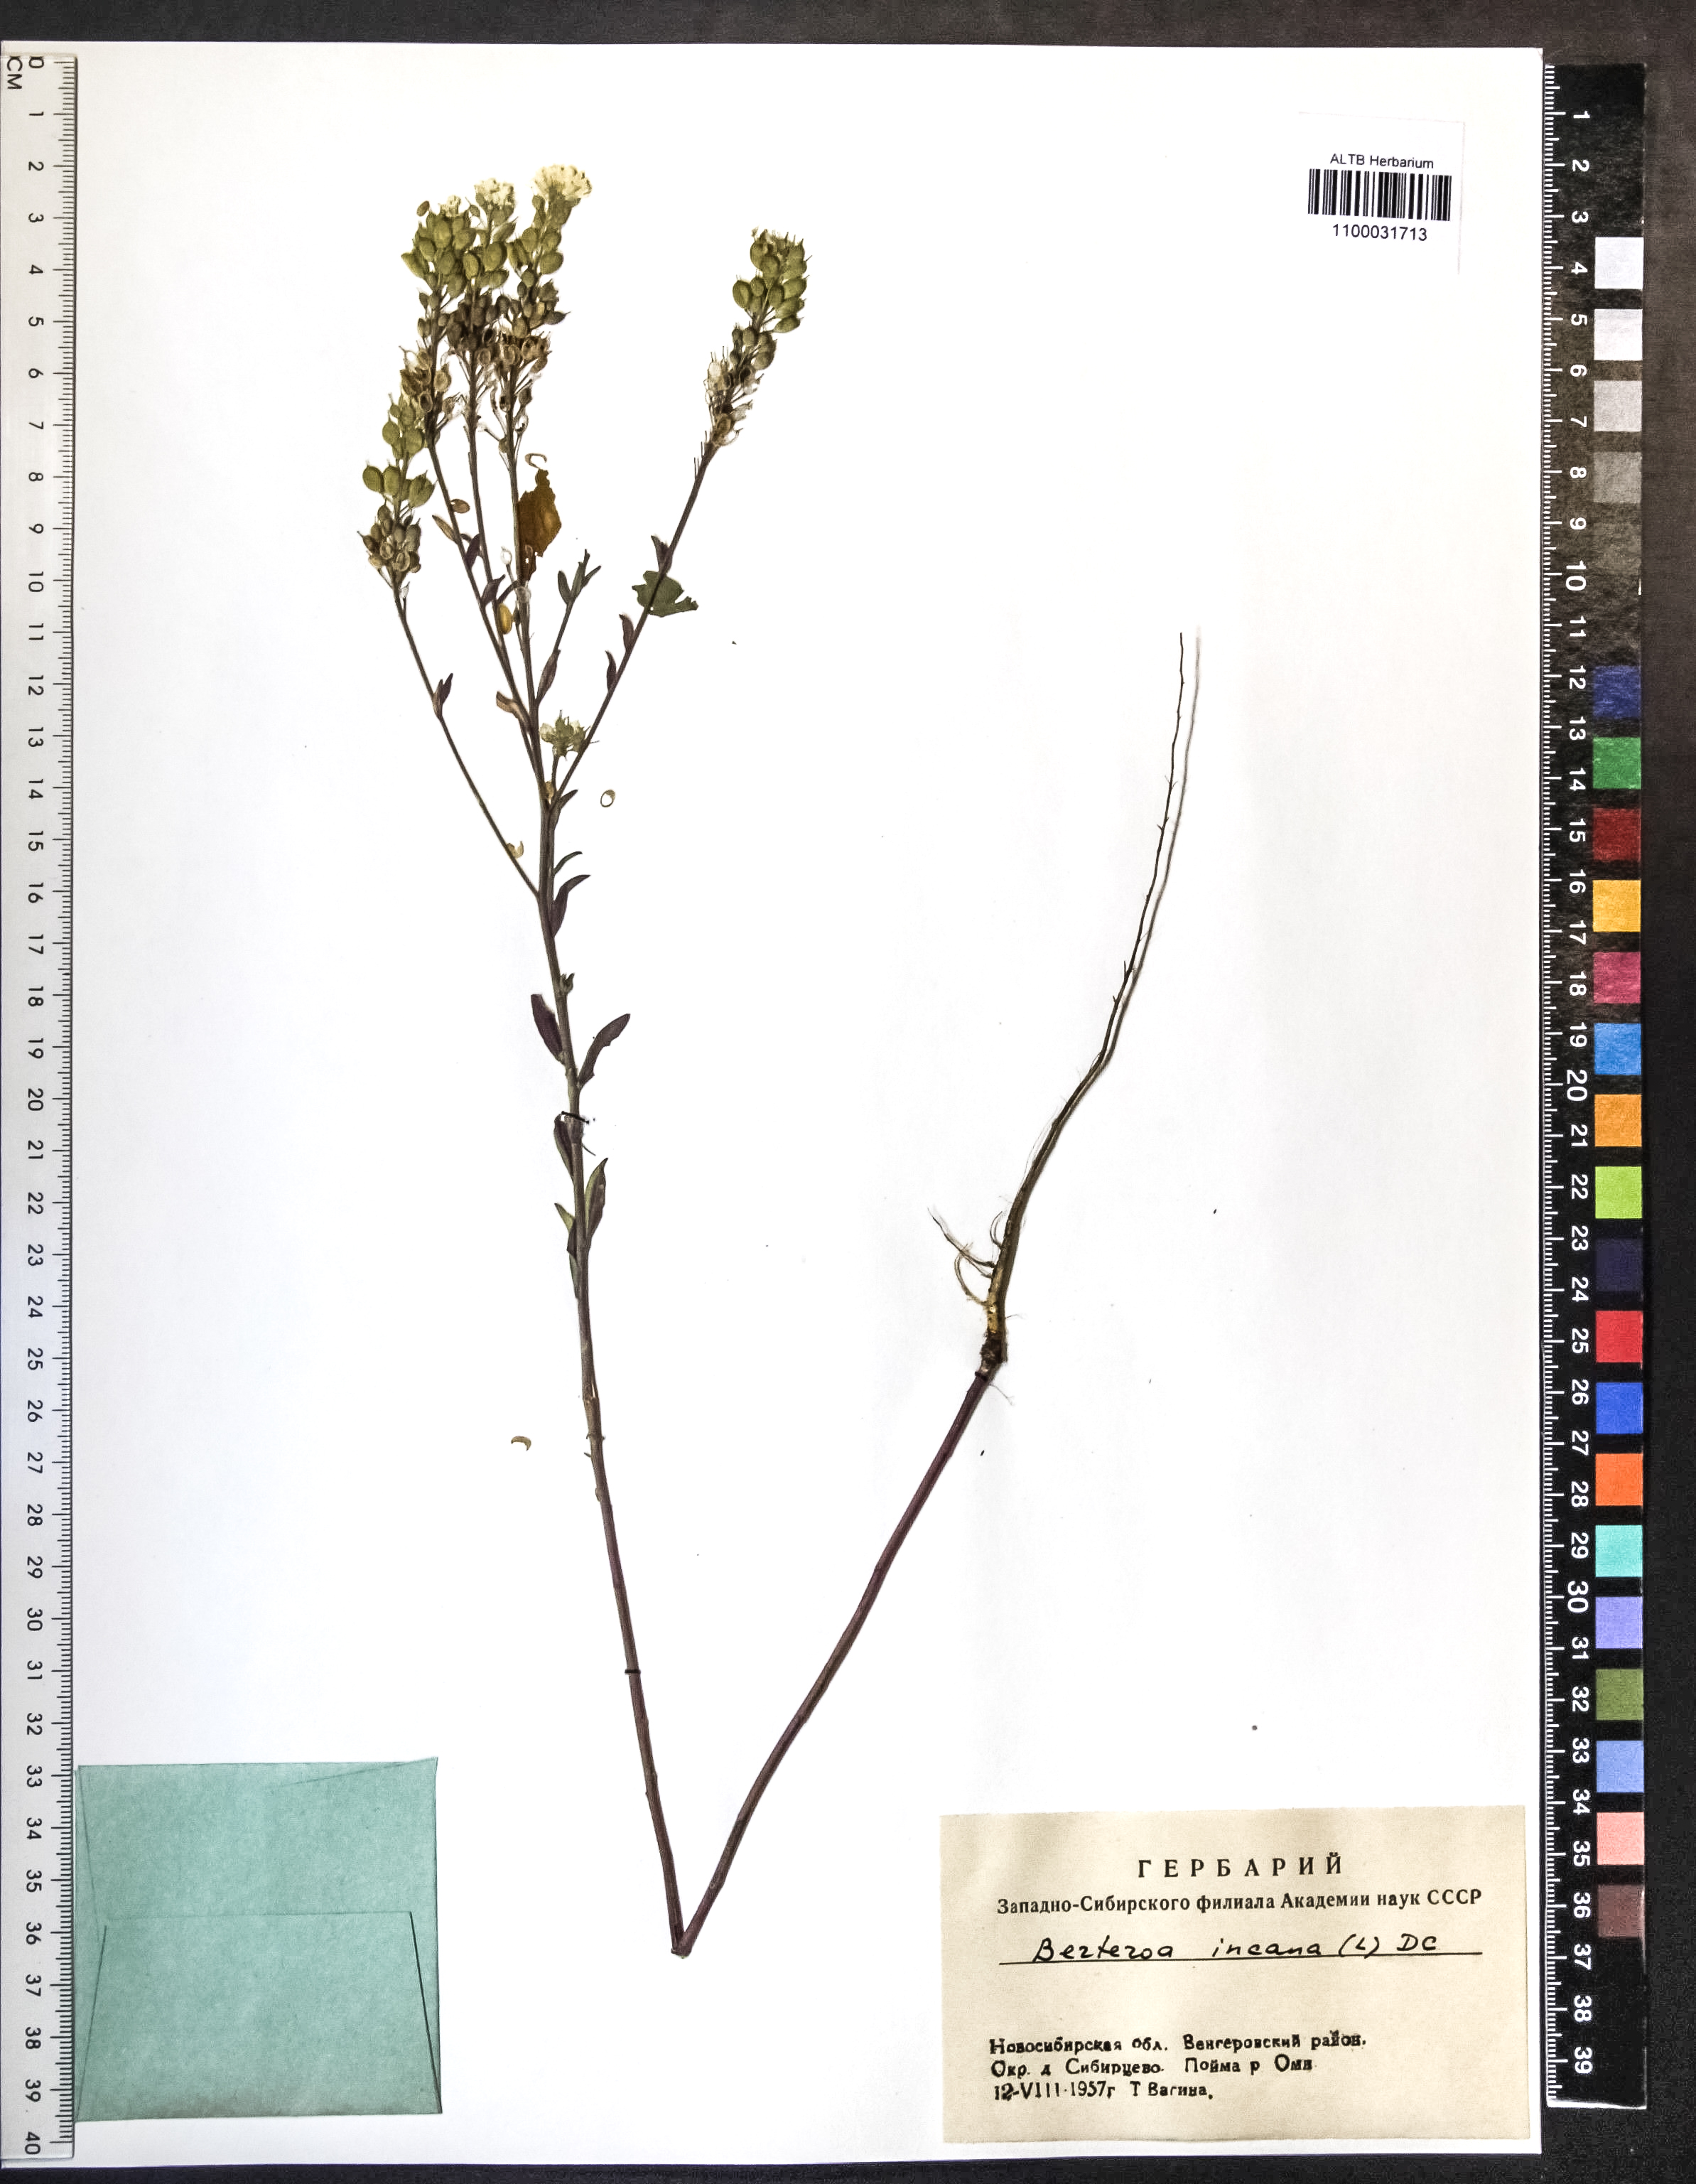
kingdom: Plantae
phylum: Tracheophyta
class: Magnoliopsida
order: Brassicales
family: Brassicaceae
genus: Berteroa
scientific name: Berteroa incana
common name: Hoary alison
